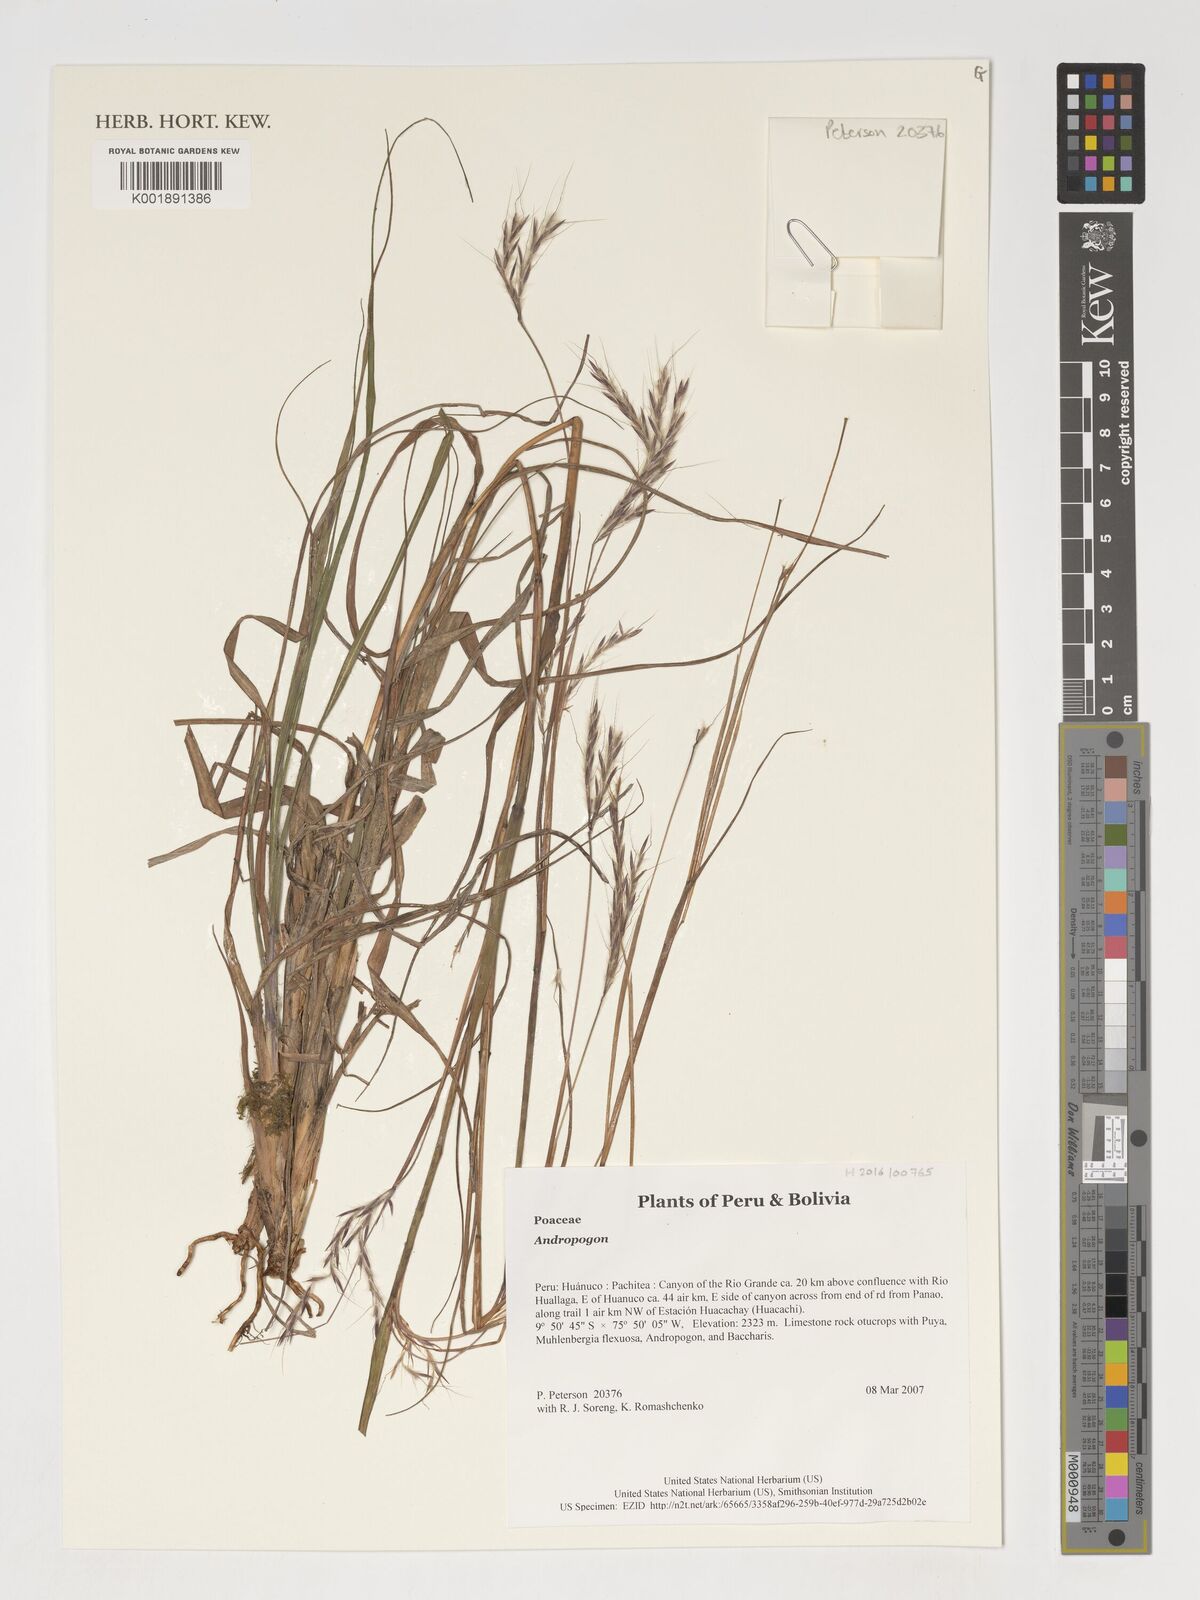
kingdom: Plantae
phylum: Tracheophyta
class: Liliopsida
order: Poales
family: Poaceae
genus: Andropogon
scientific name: Andropogon
